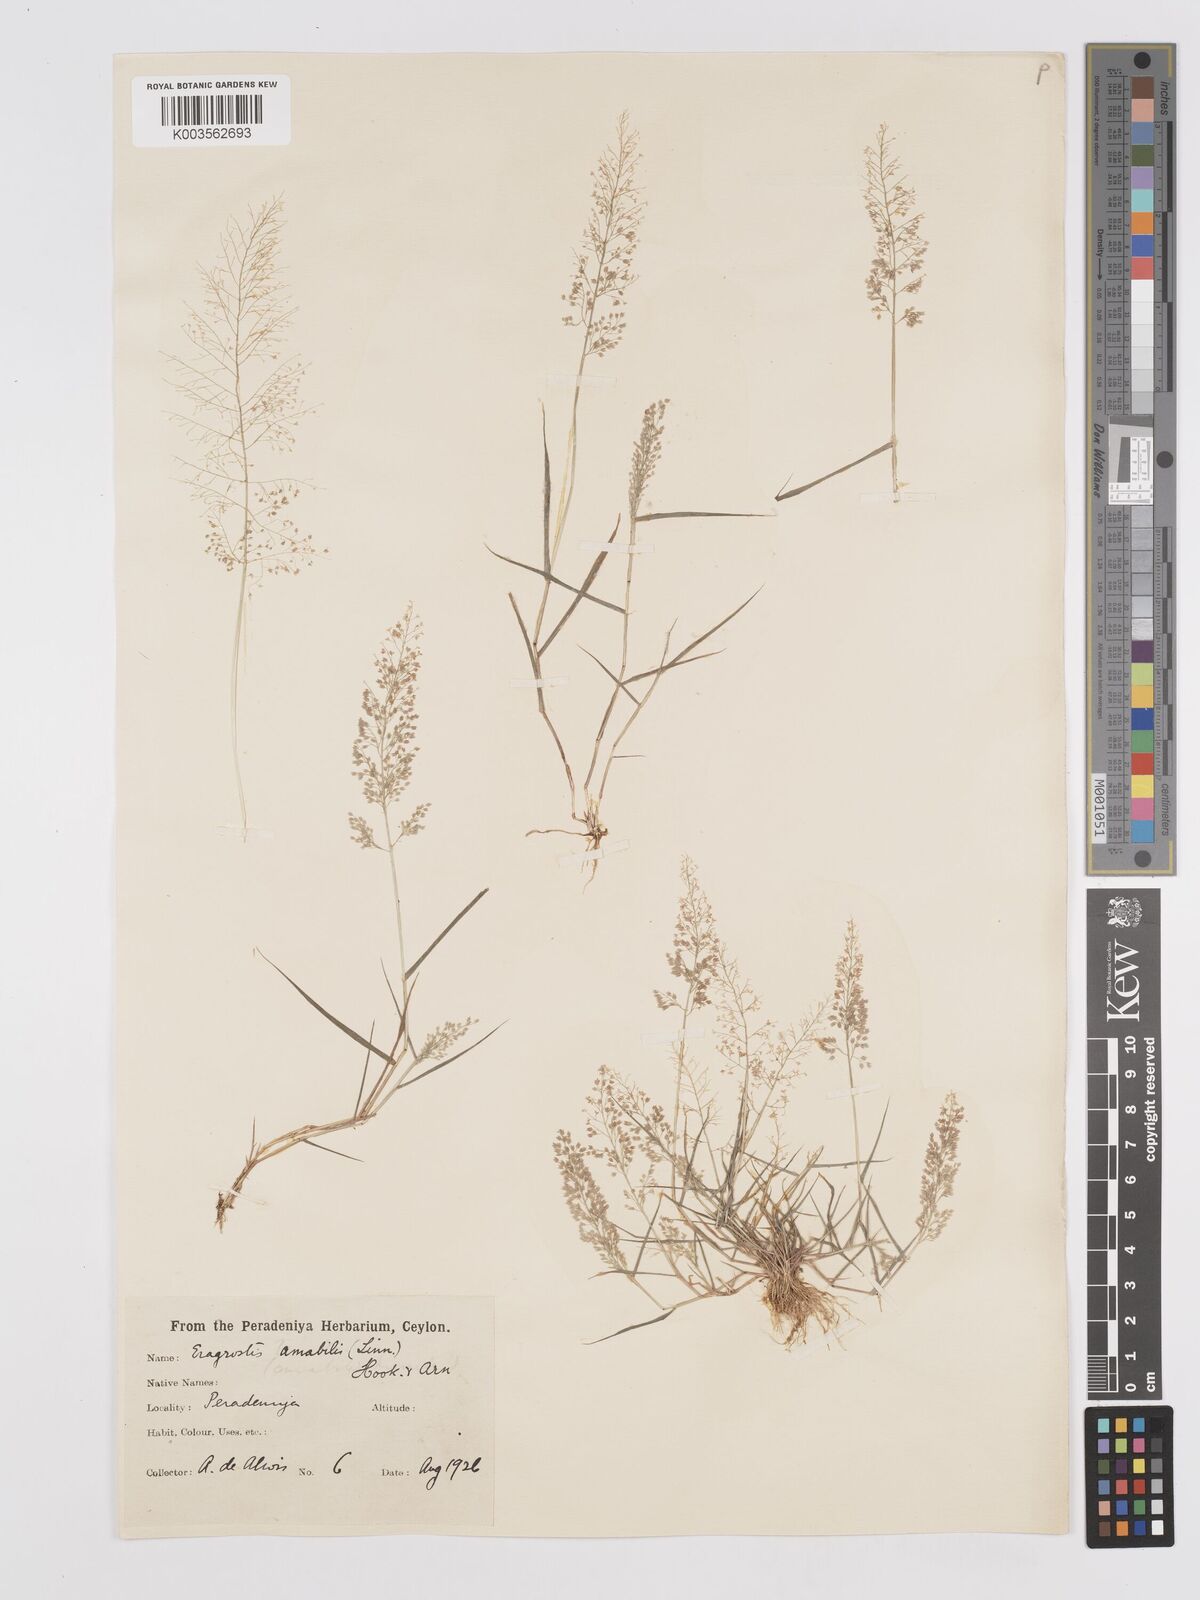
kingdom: Plantae
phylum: Tracheophyta
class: Liliopsida
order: Poales
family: Poaceae
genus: Eragrostis
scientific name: Eragrostis tenella
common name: Japanese lovegrass
